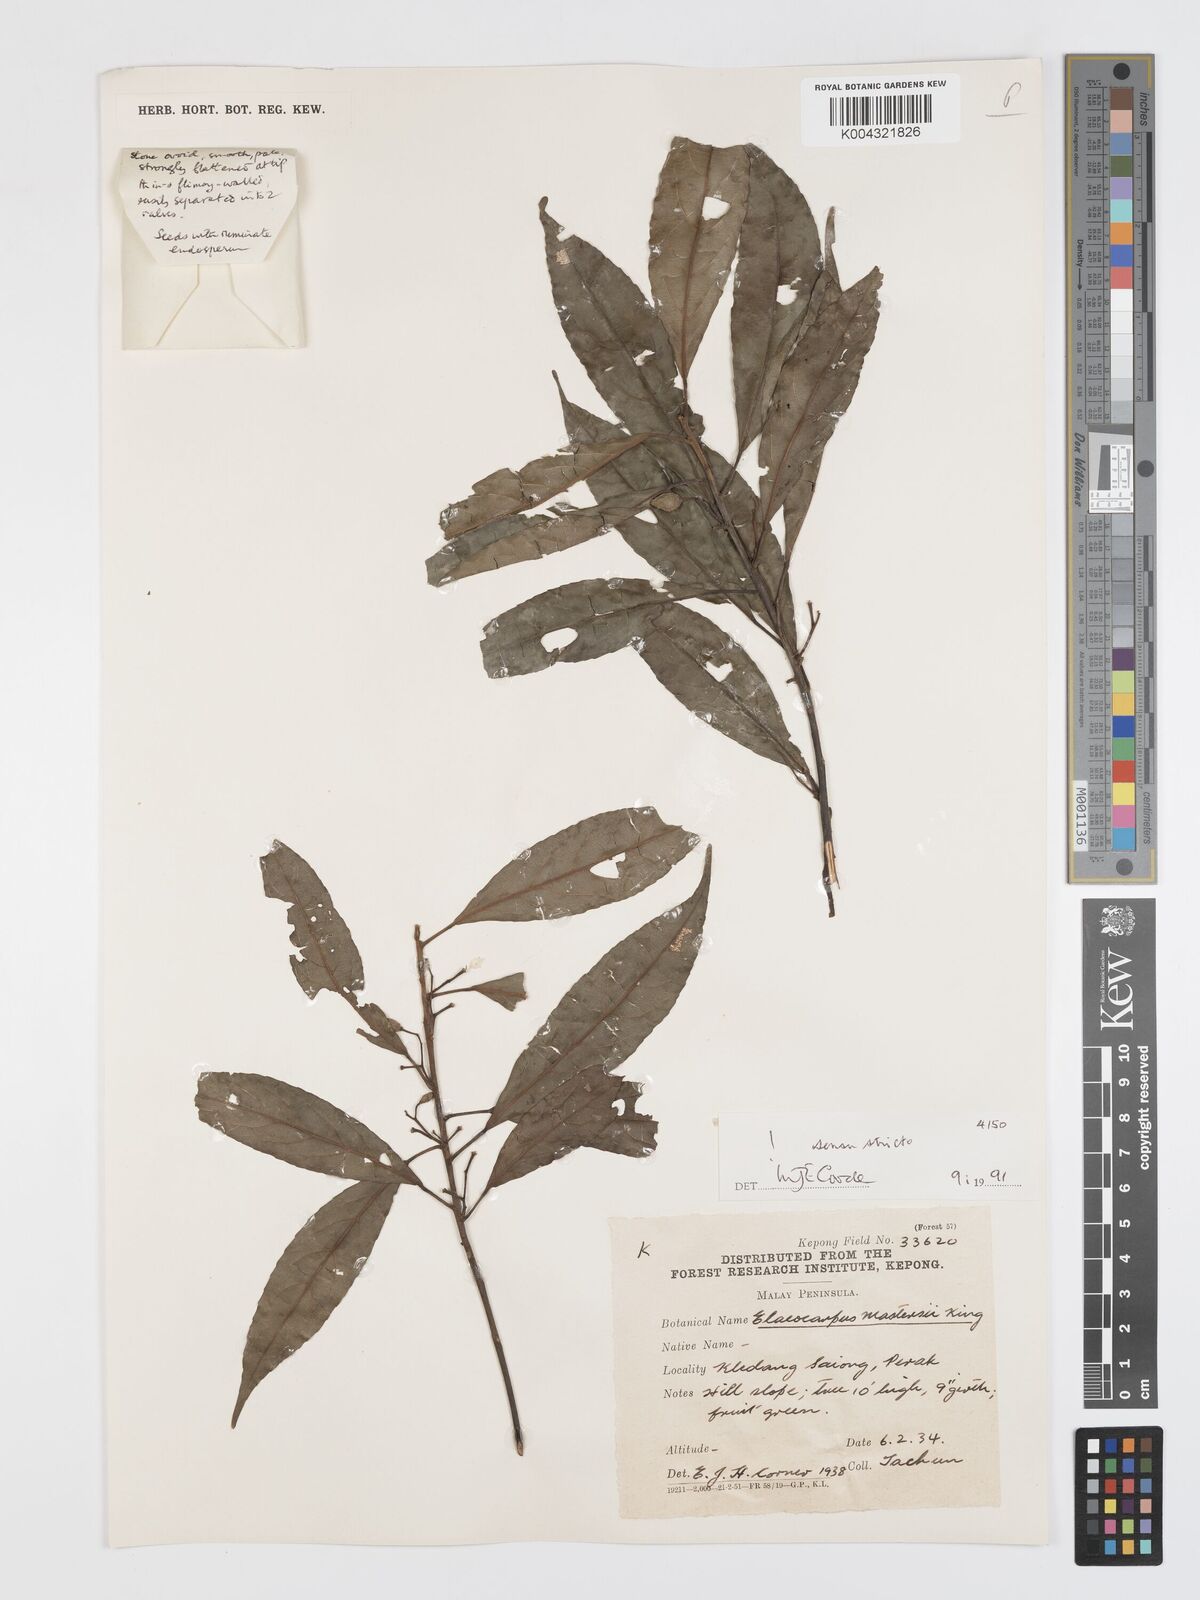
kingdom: Plantae
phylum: Tracheophyta
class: Magnoliopsida
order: Oxalidales
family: Elaeocarpaceae
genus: Elaeocarpus
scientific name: Elaeocarpus mastersii
